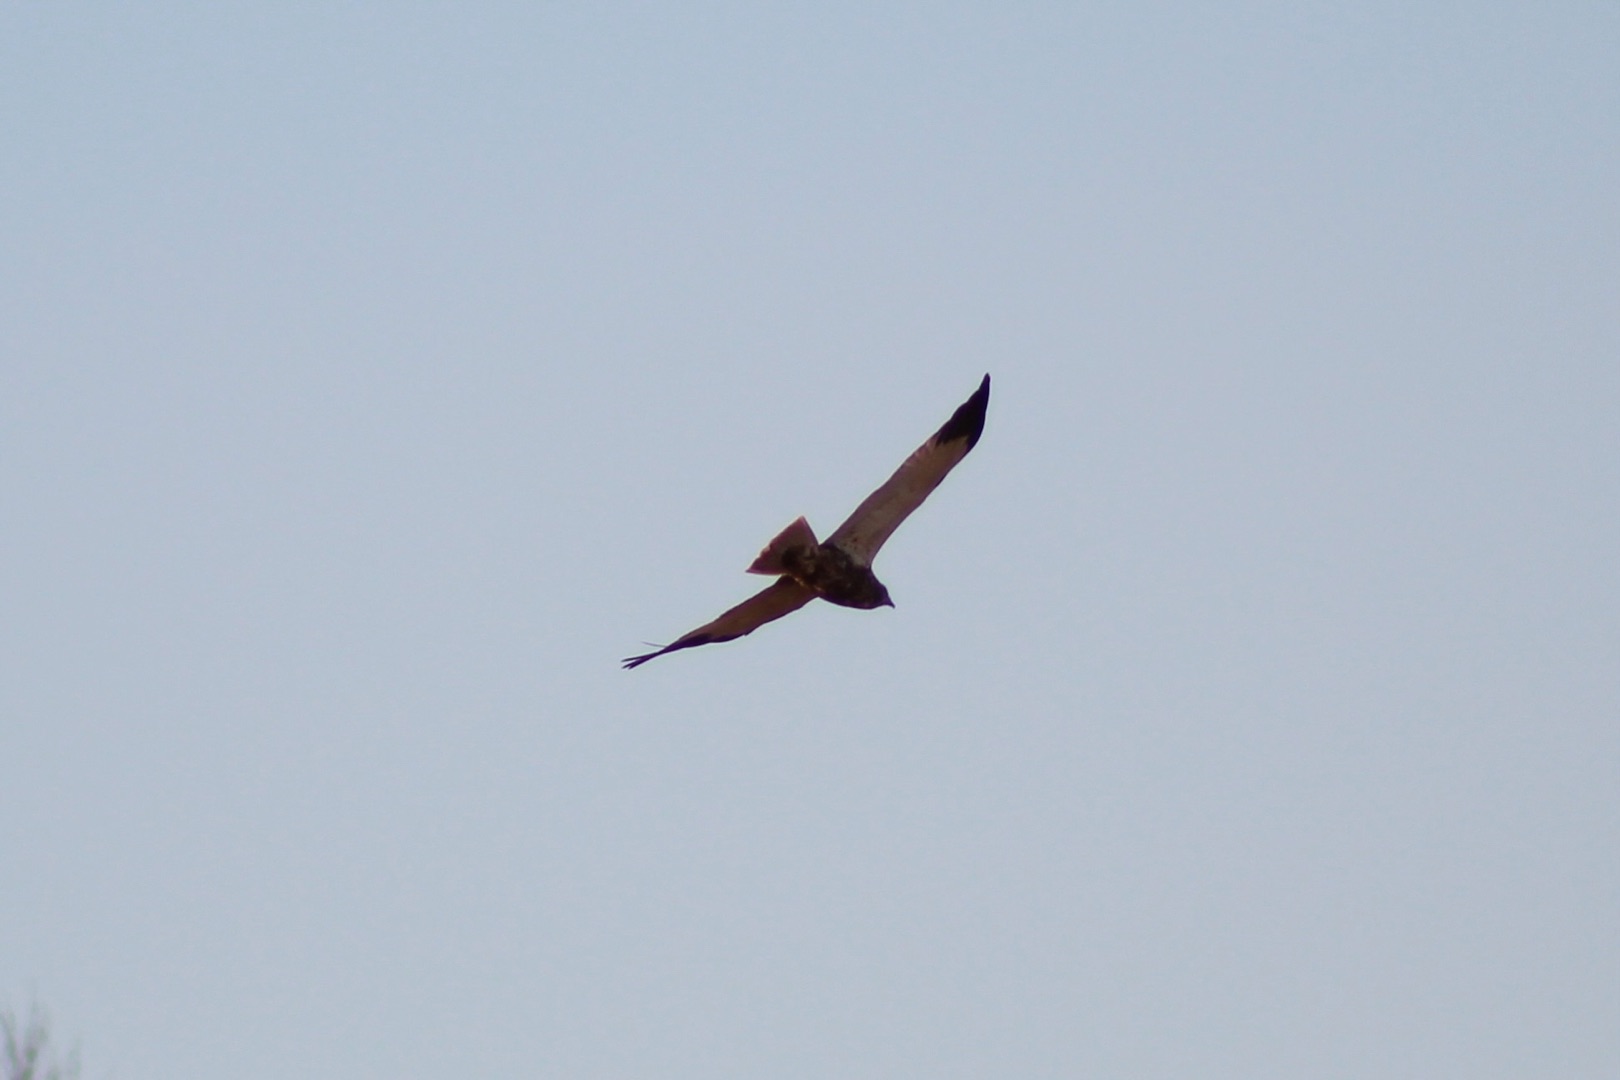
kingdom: Animalia
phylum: Chordata
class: Aves
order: Accipitriformes
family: Accipitridae
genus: Circus
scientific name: Circus aeruginosus
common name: Rørhøg
